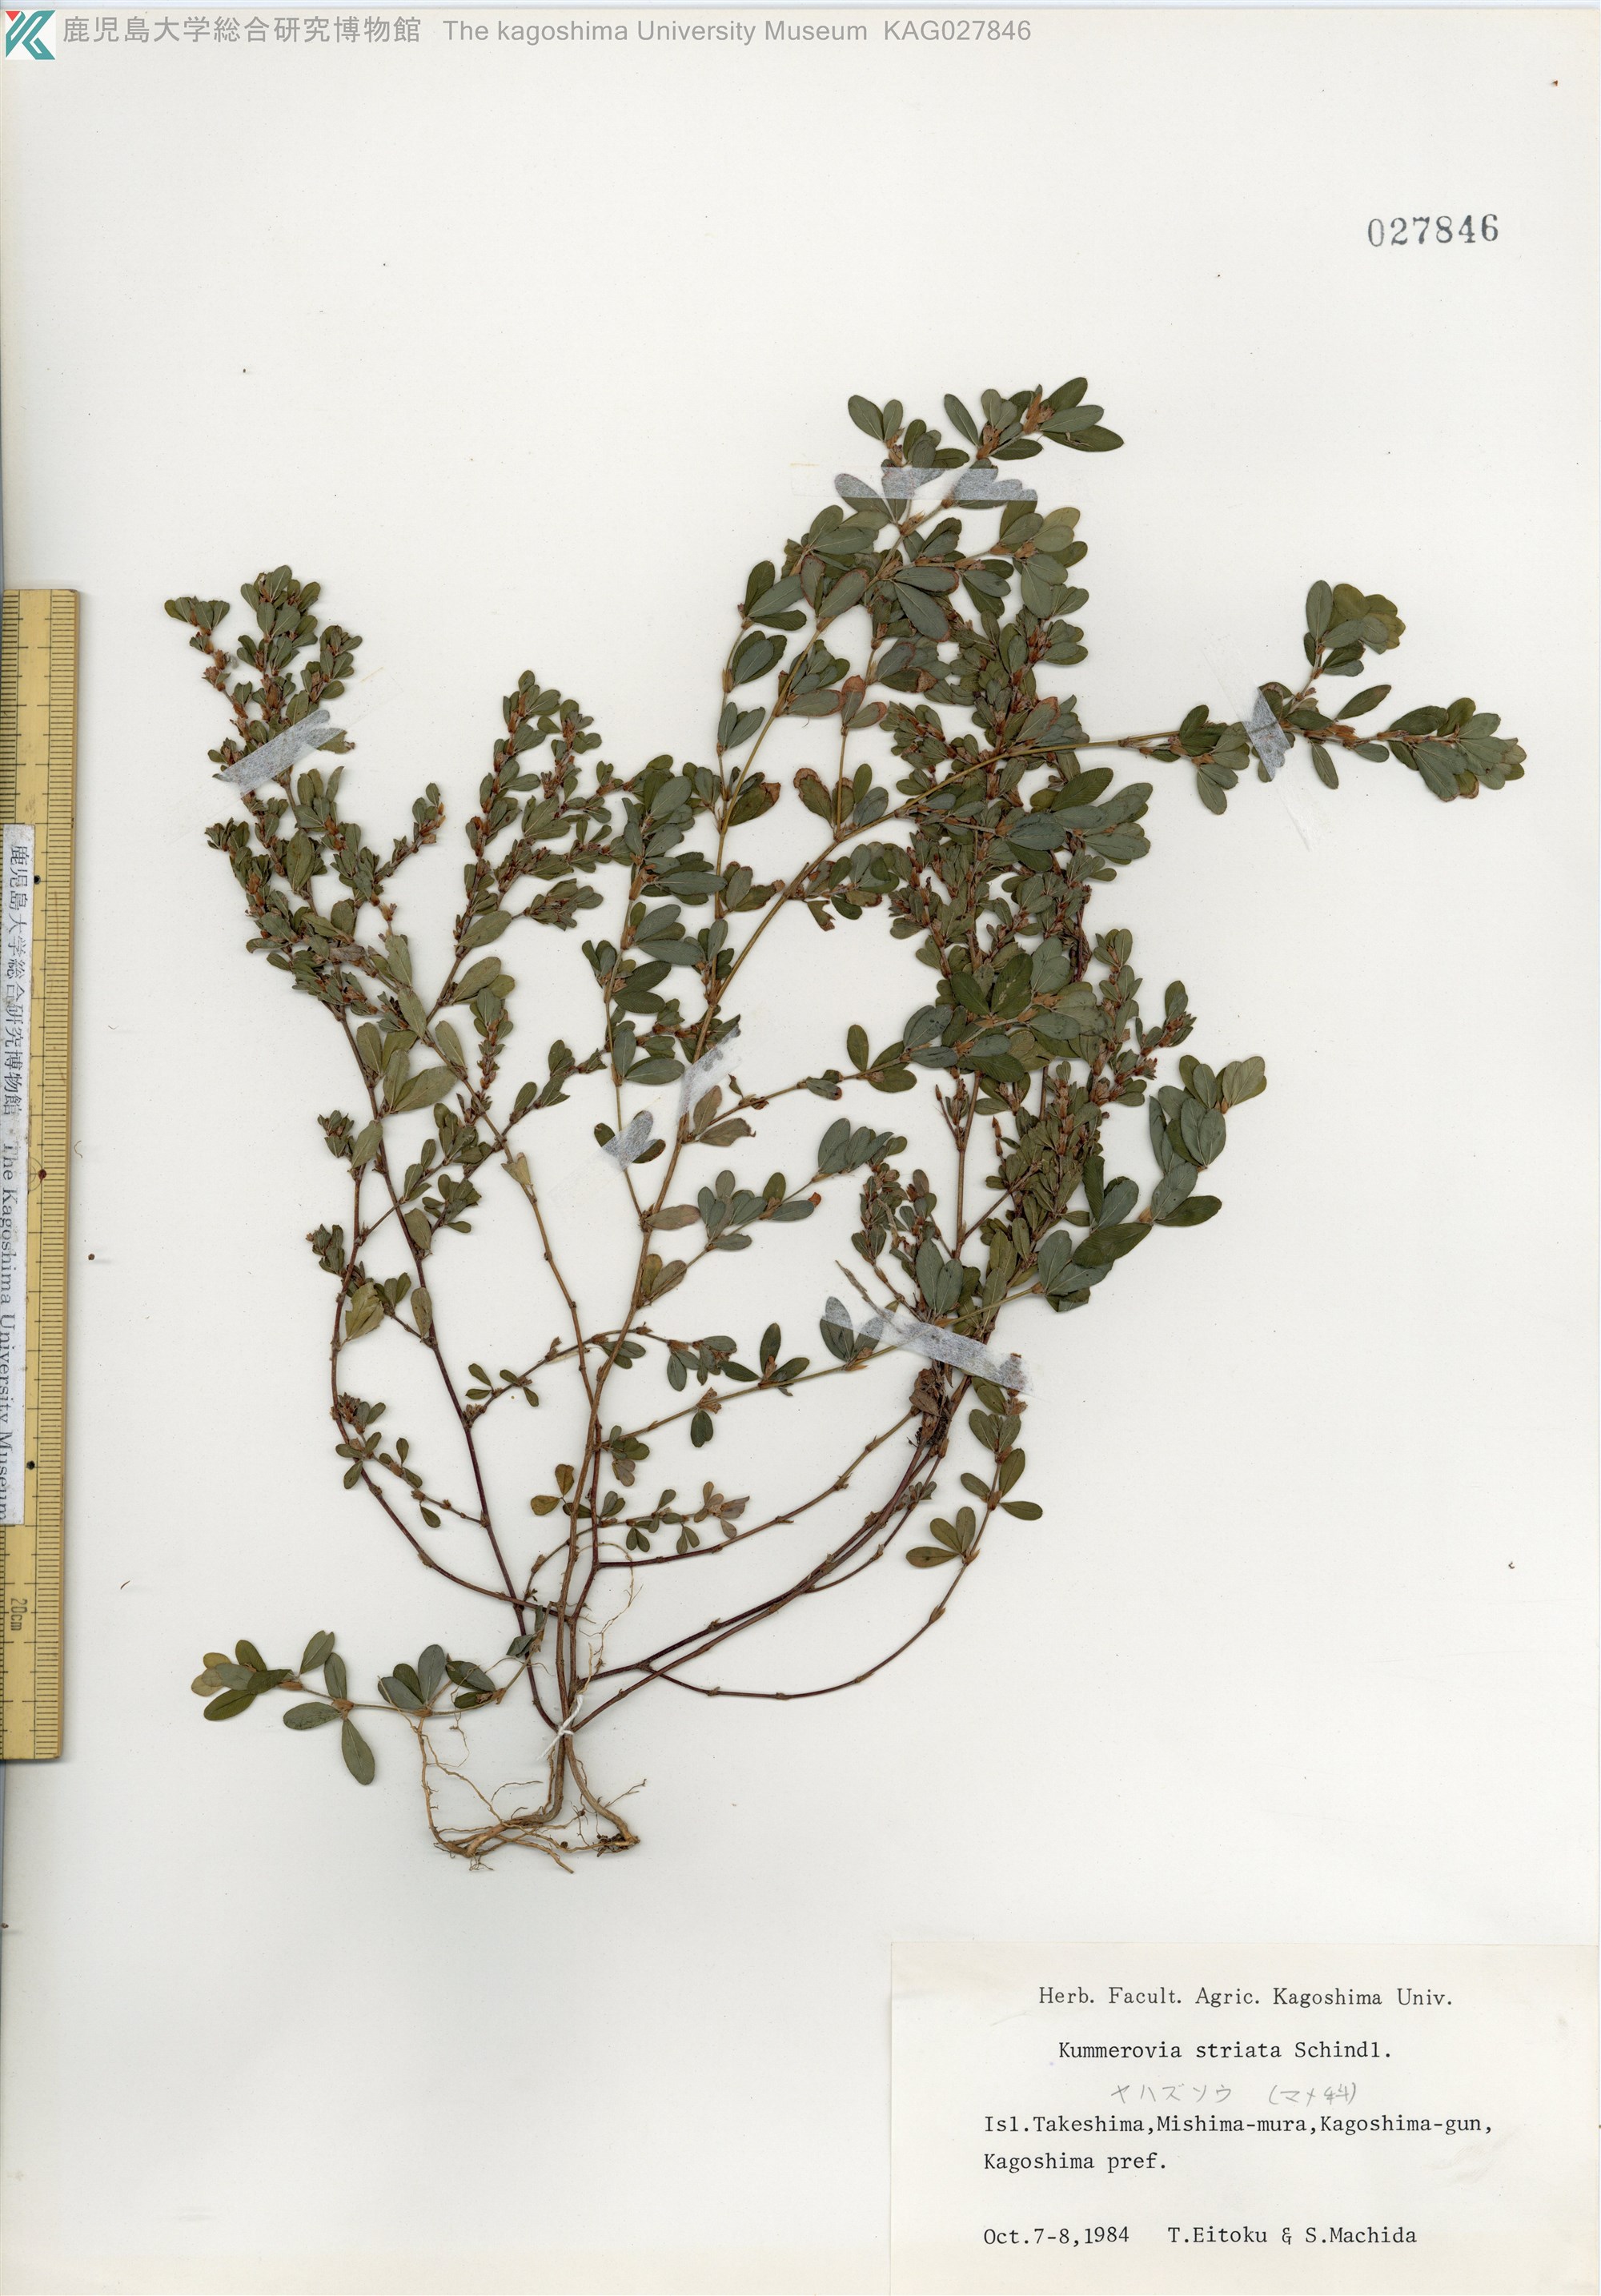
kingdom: Plantae
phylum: Tracheophyta
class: Magnoliopsida
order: Fabales
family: Fabaceae
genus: Kummerowia
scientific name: Kummerowia striata
